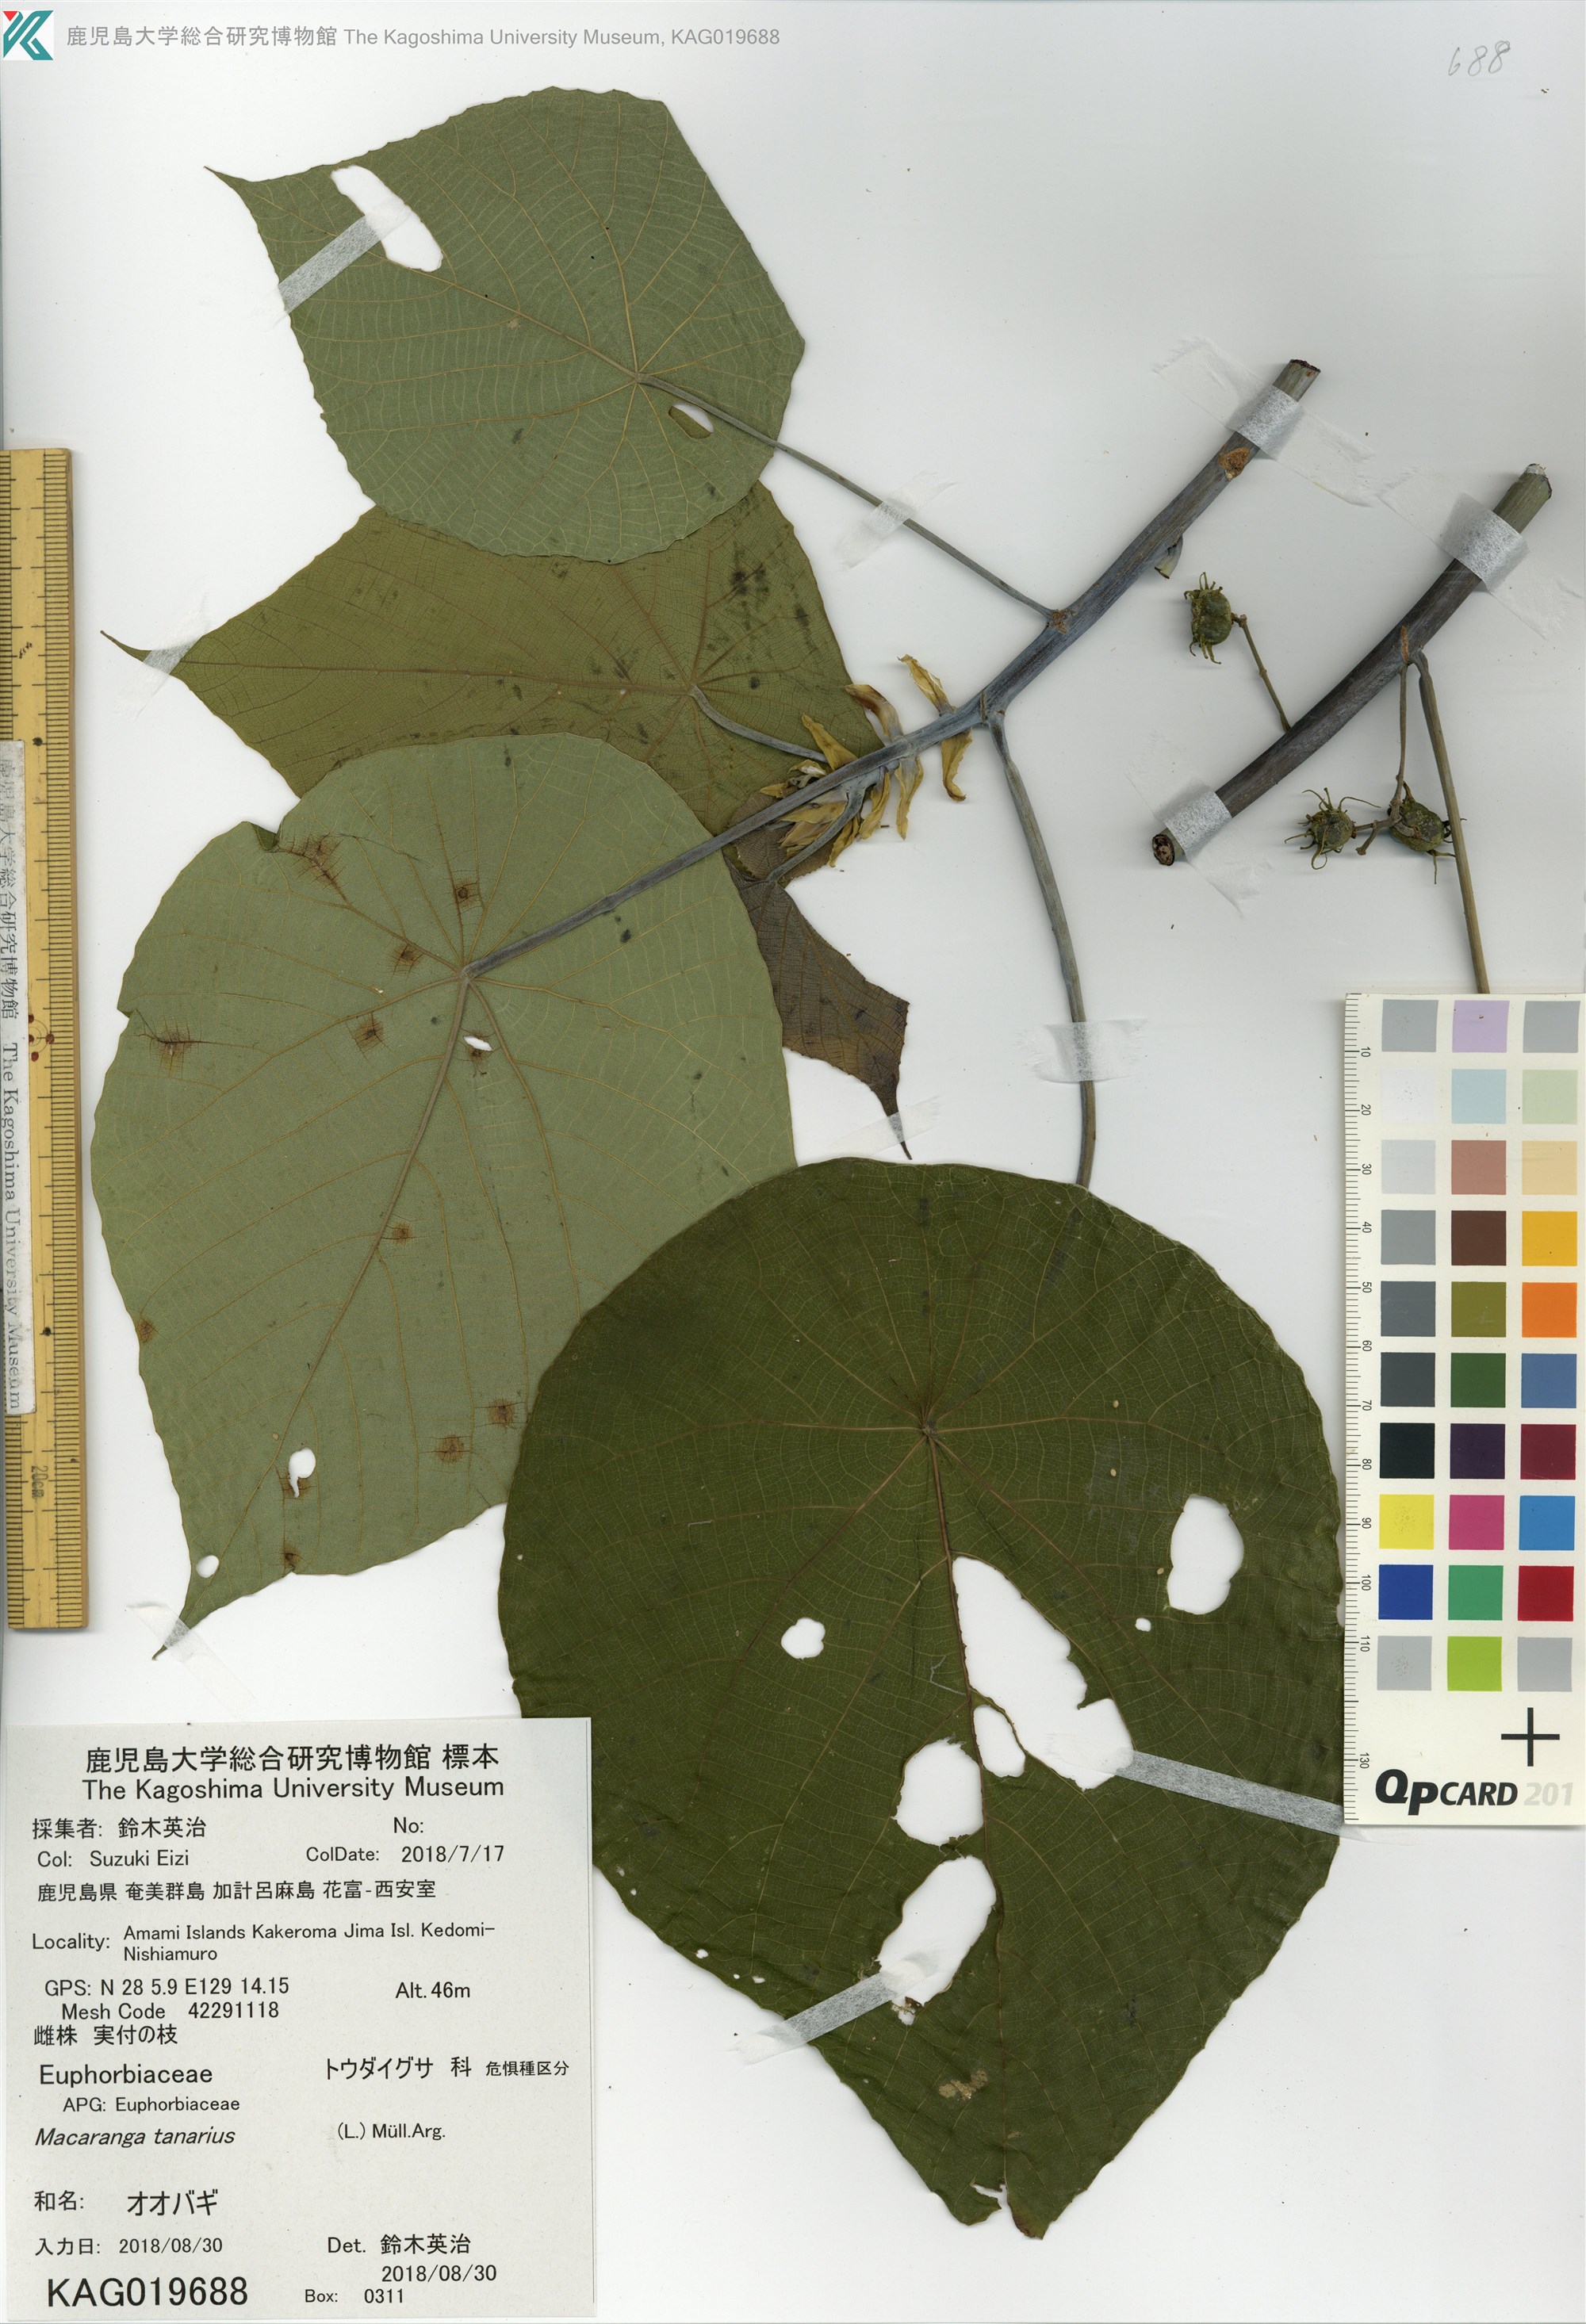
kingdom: Plantae
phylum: Tracheophyta
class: Magnoliopsida
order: Malpighiales
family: Euphorbiaceae
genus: Macaranga
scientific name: Macaranga tanarius
